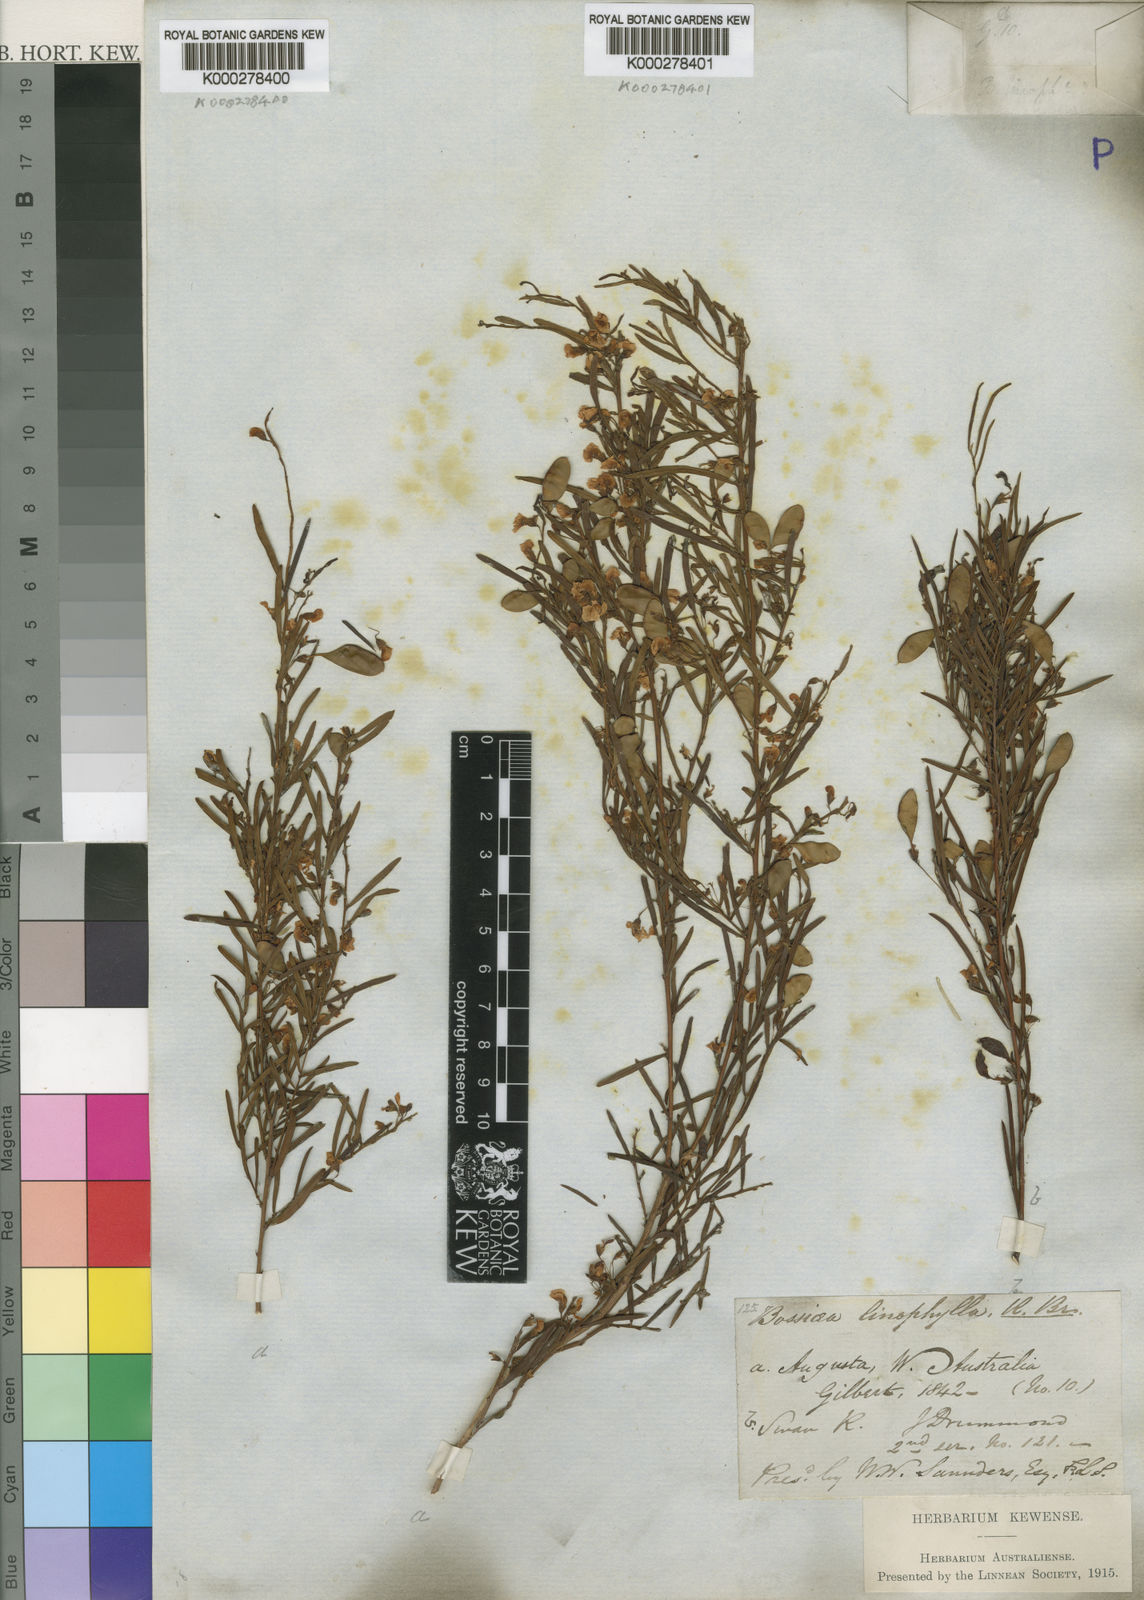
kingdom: Plantae
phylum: Tracheophyta
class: Magnoliopsida
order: Fabales
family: Fabaceae
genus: Bossiaea
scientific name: Bossiaea linophylla
